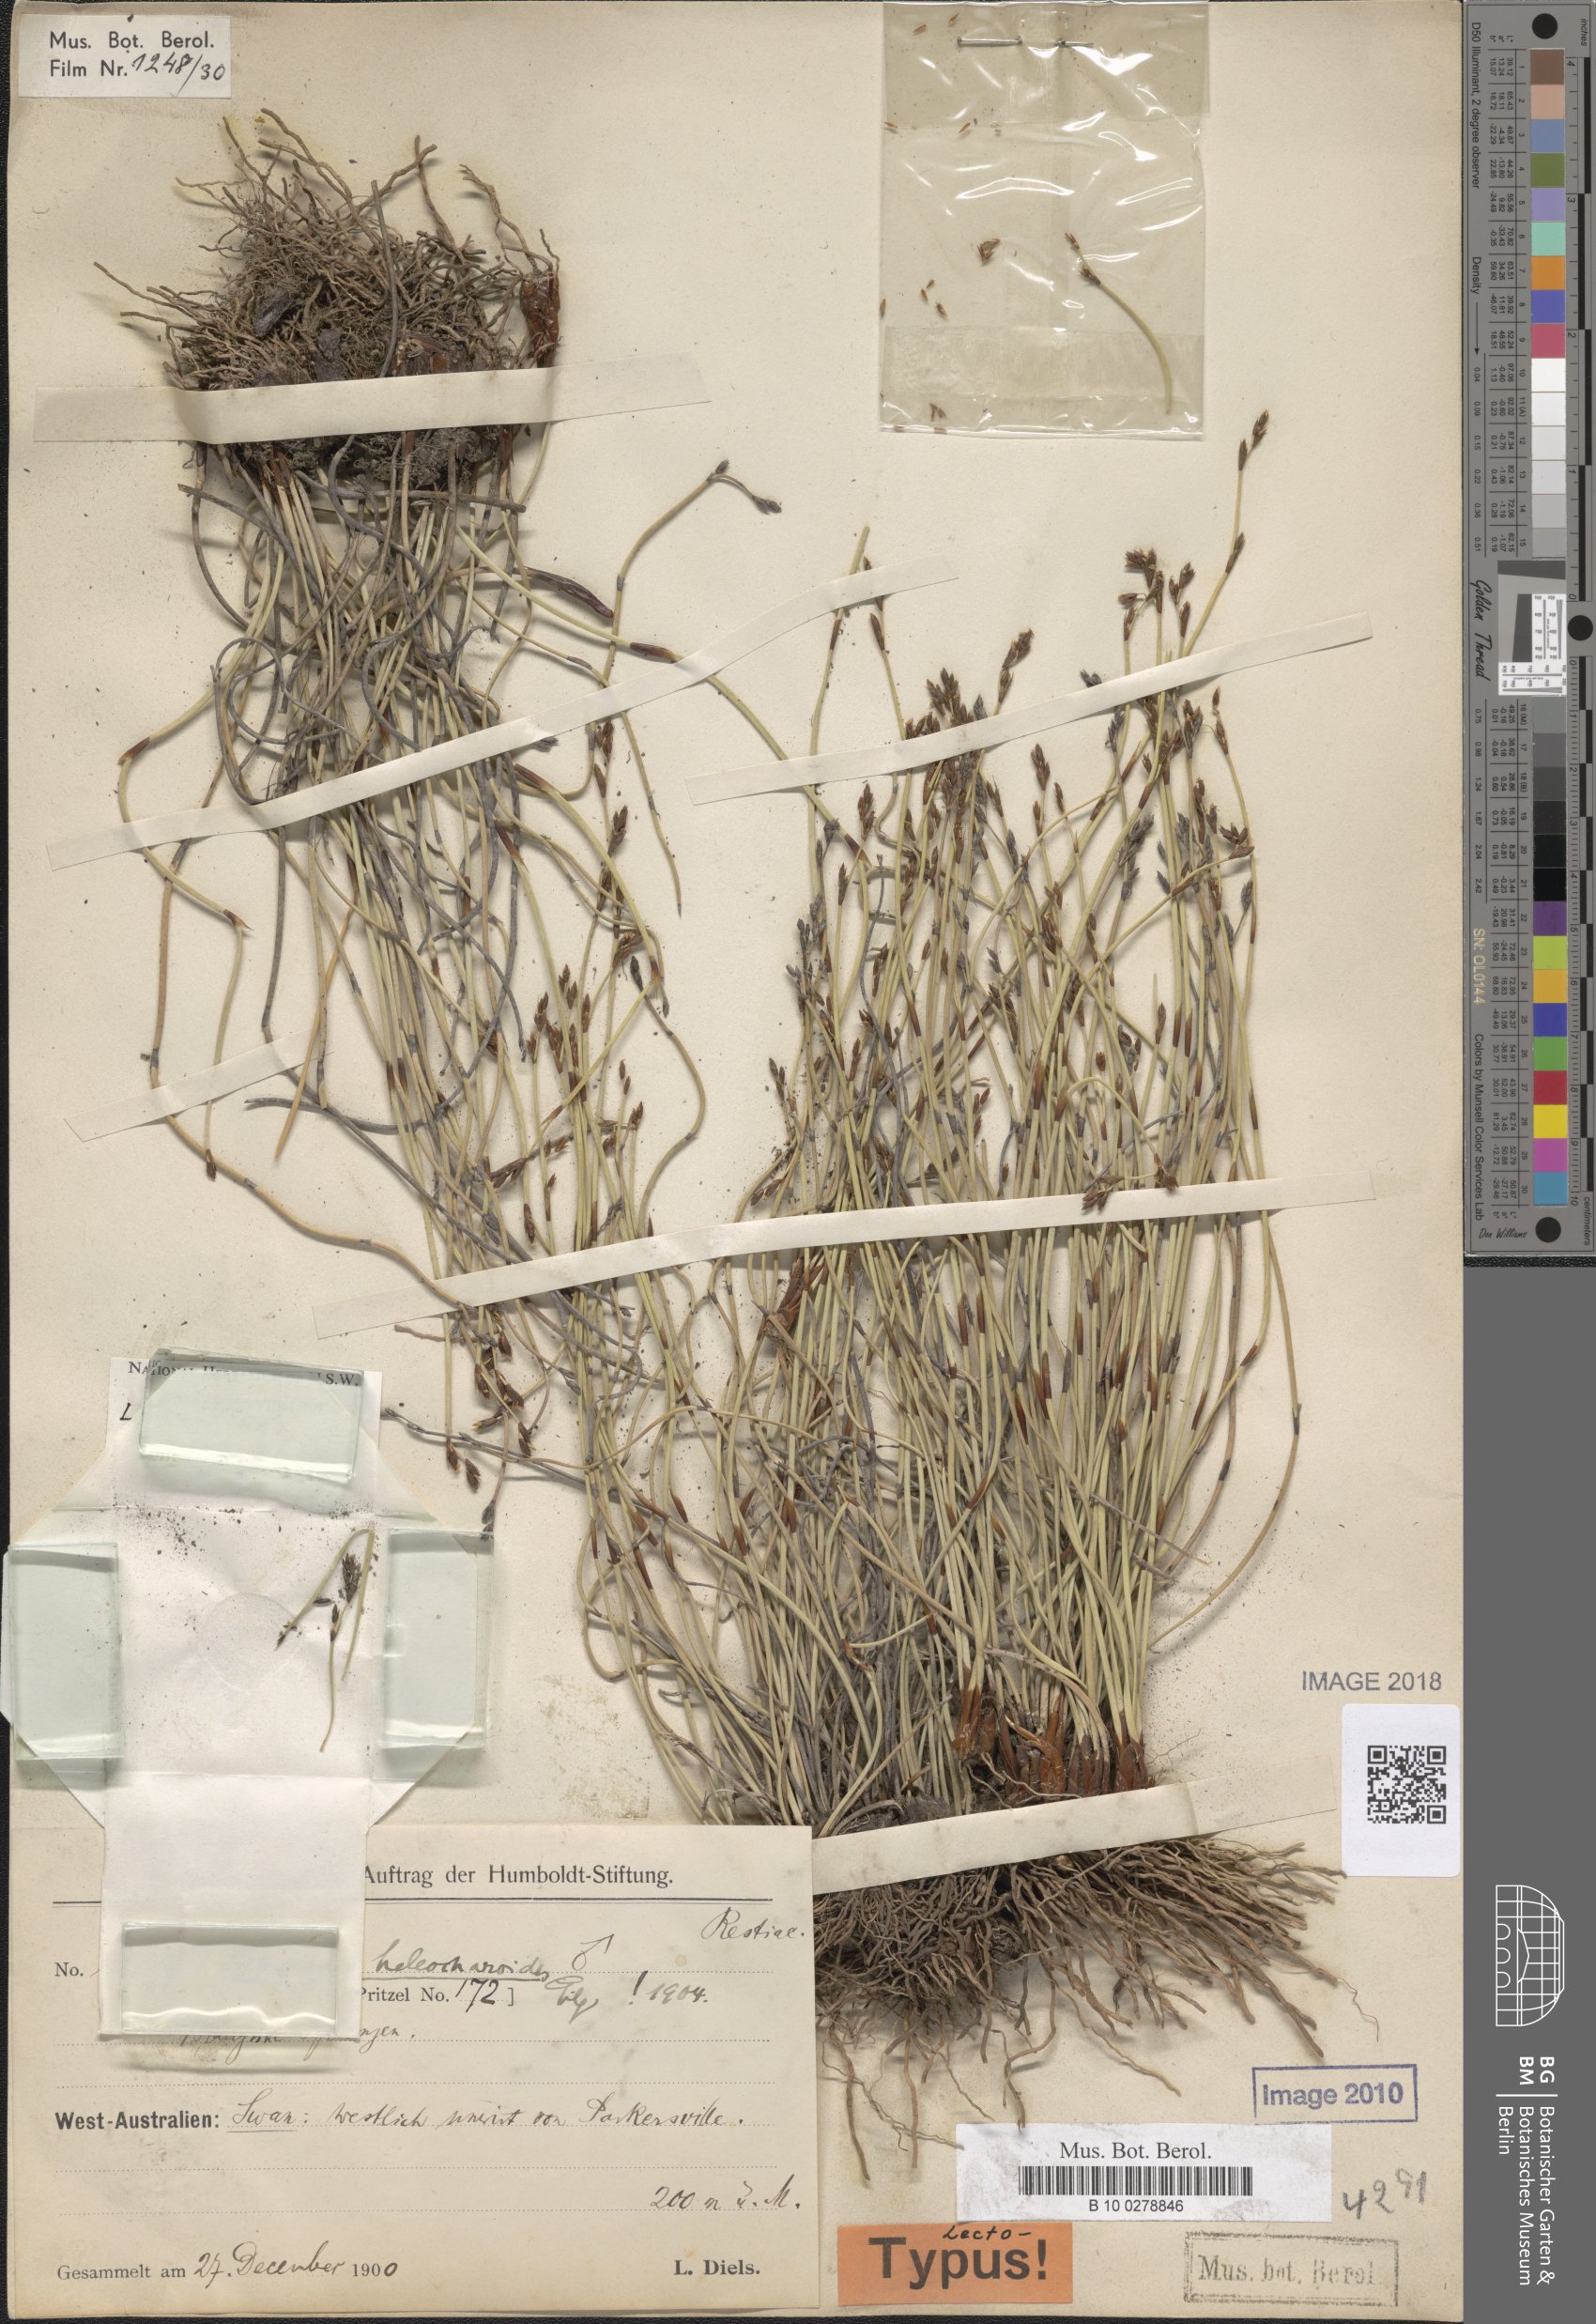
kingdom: Plantae
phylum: Tracheophyta
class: Liliopsida
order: Poales
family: Restionaceae
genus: Lepyrodia
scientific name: Lepyrodia heleocharoides
